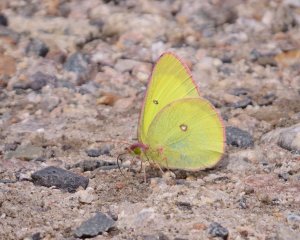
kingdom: Animalia
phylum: Arthropoda
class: Insecta
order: Lepidoptera
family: Pieridae
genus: Colias
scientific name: Colias interior
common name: Pink-edged Sulphur
